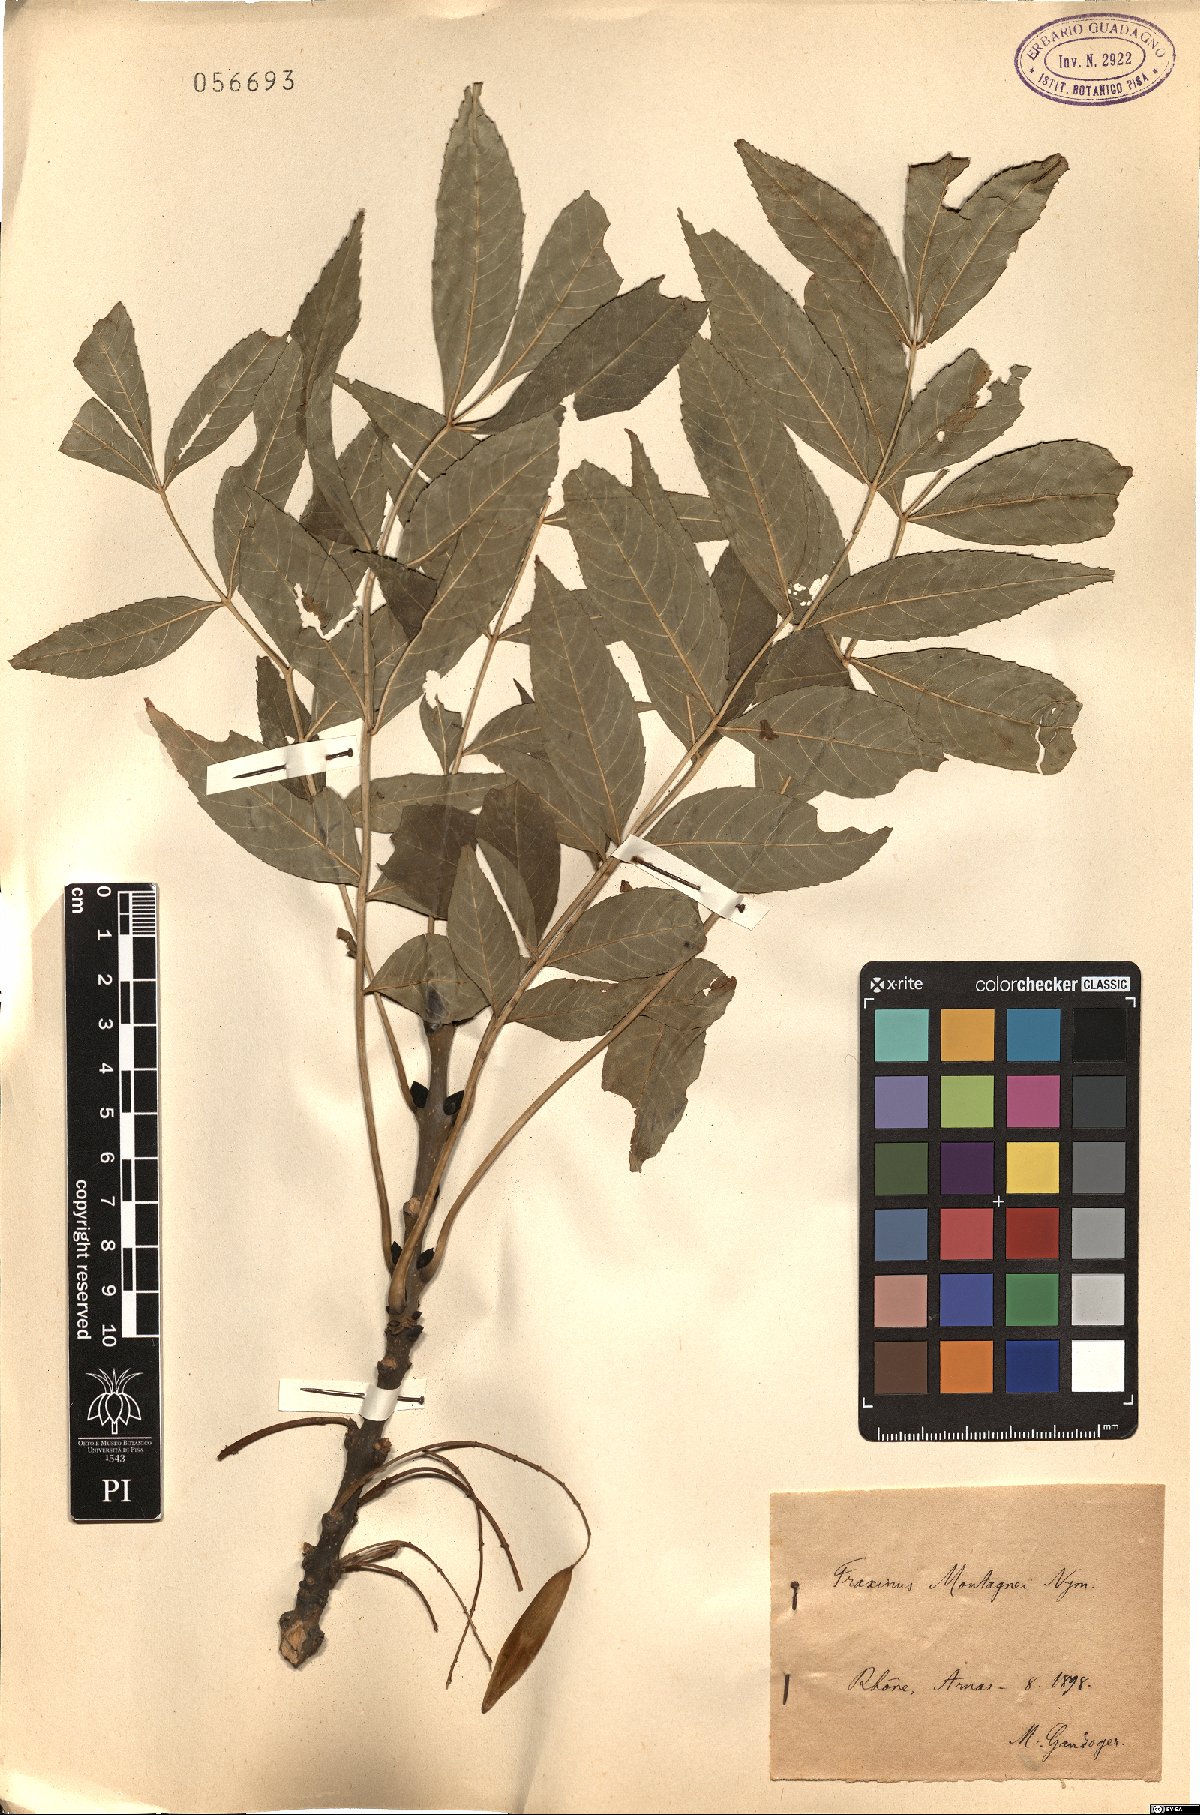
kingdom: Plantae
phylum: Tracheophyta
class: Magnoliopsida
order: Lamiales
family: Oleaceae
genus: Fraxinus
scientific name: Fraxinus montagnei
